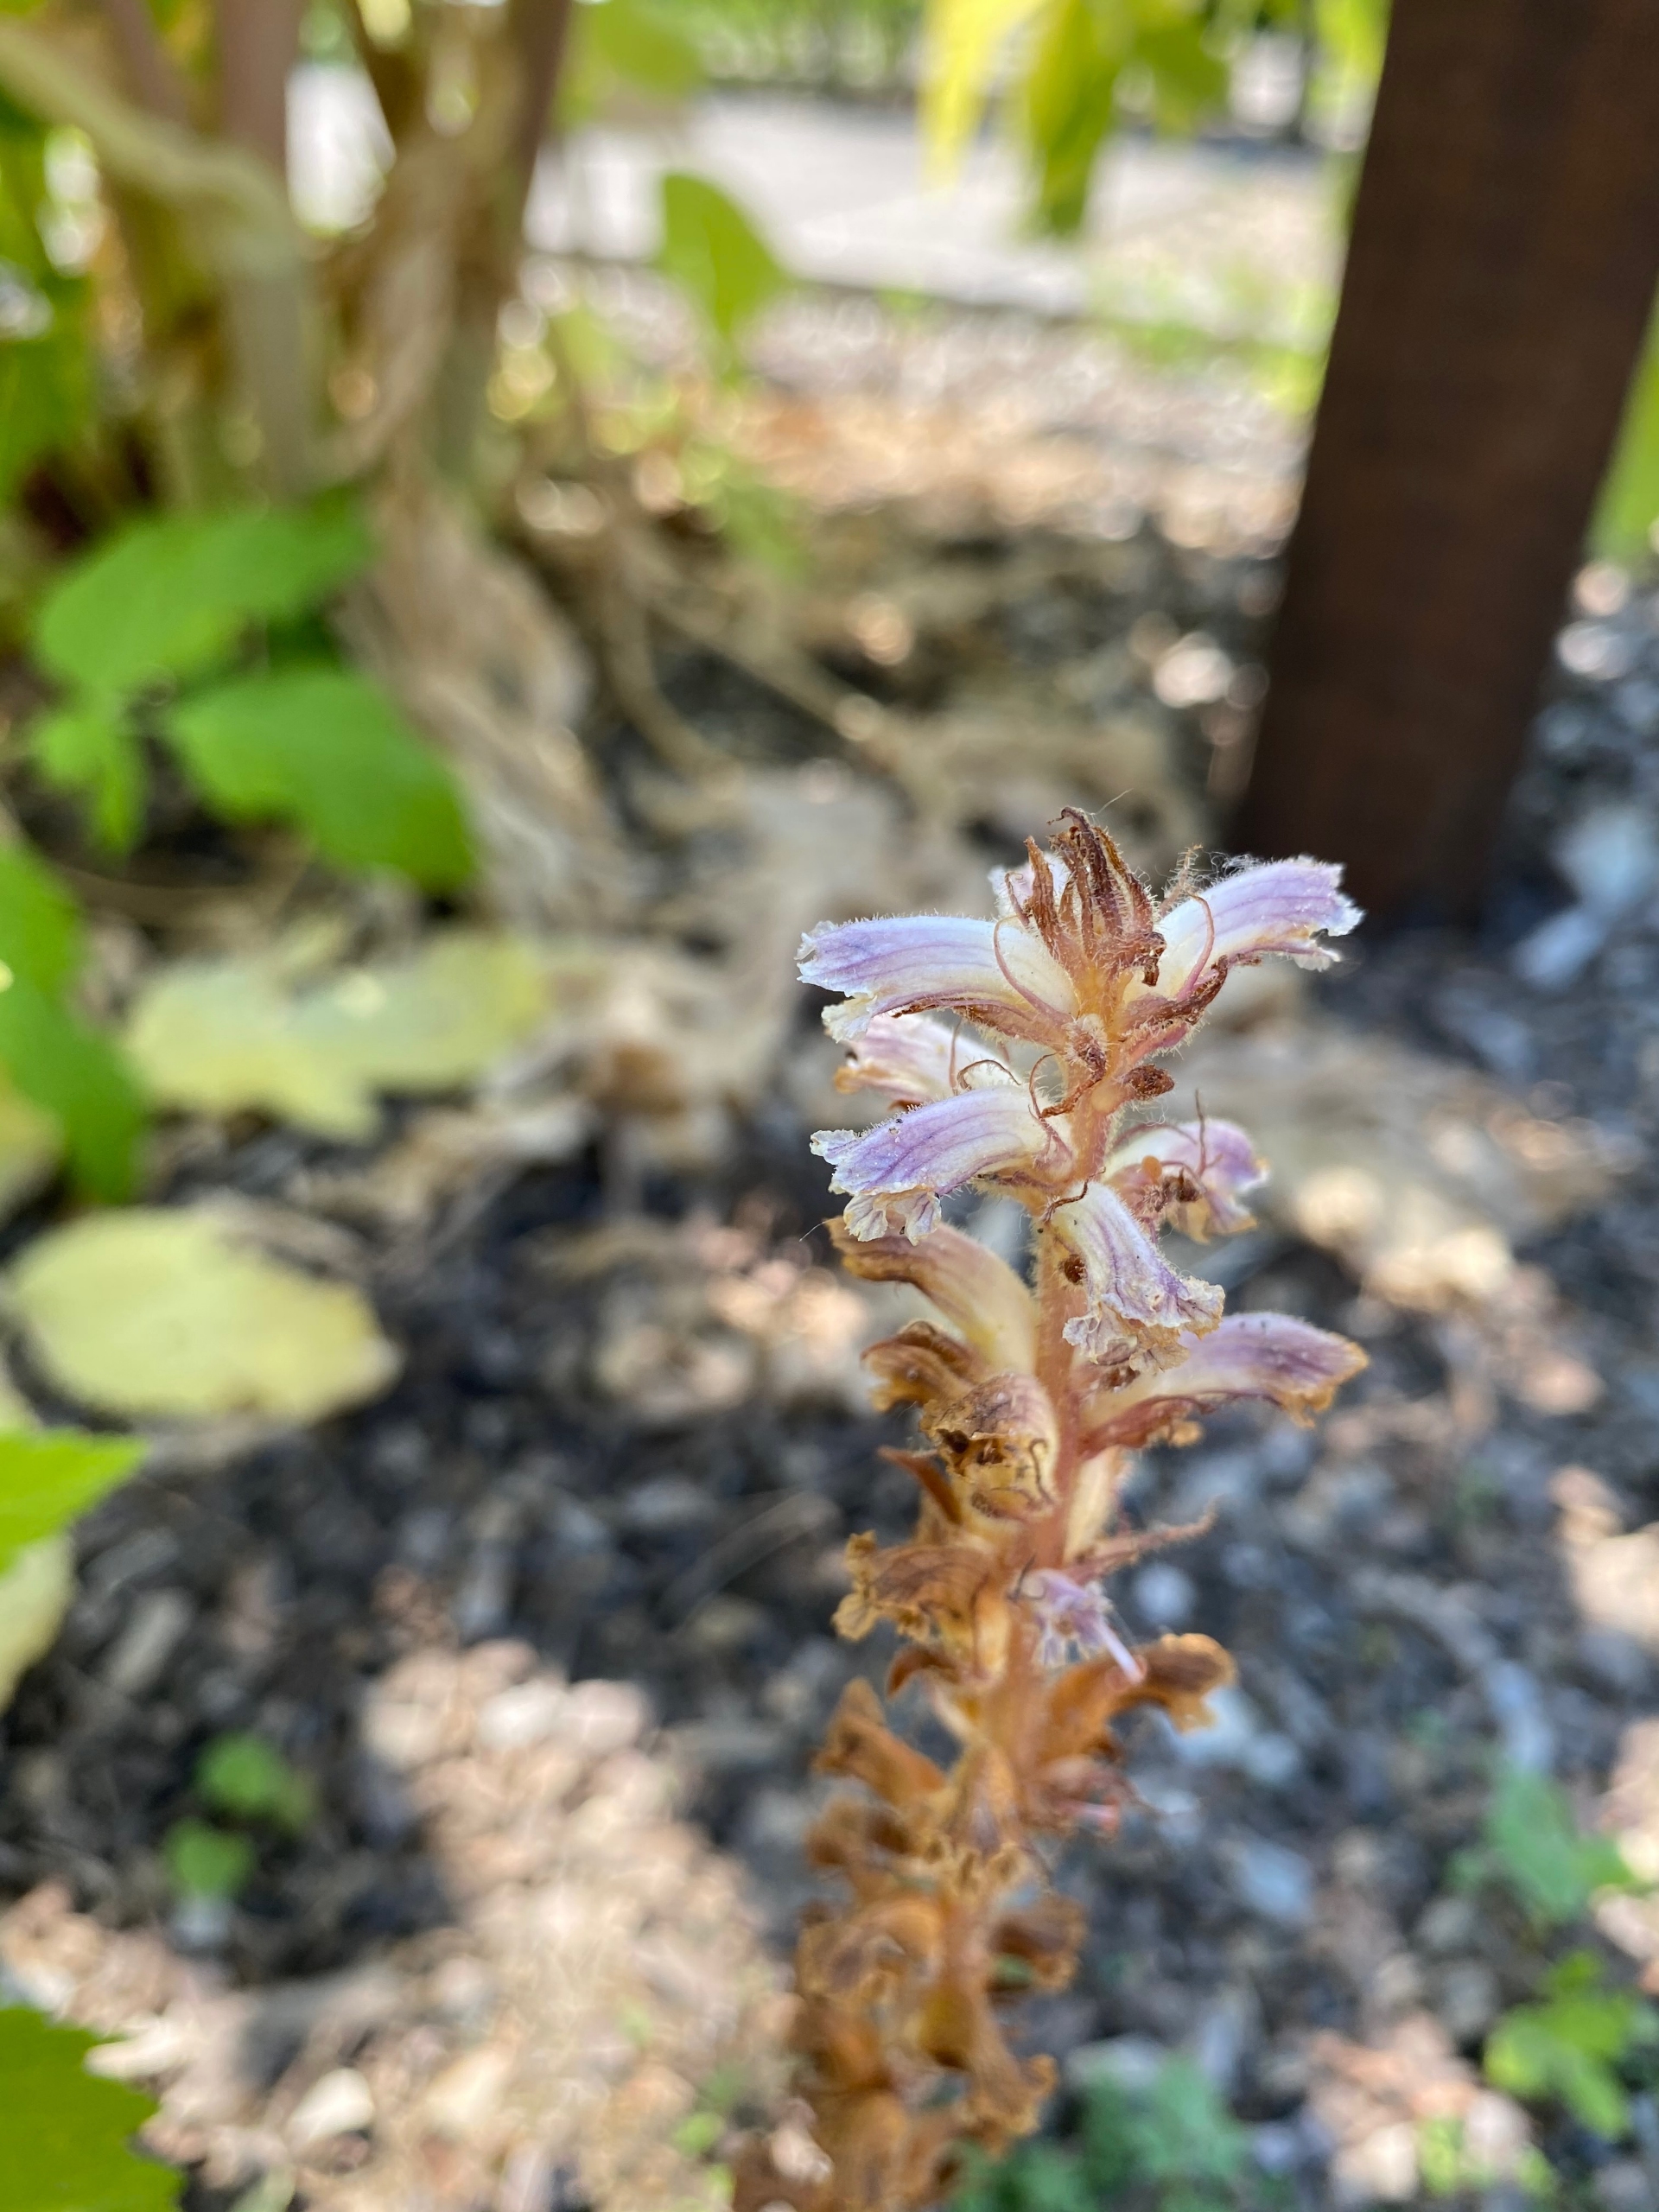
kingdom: Plantae
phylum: Tracheophyta
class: Magnoliopsida
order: Lamiales
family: Orobanchaceae
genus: Orobanche
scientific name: Orobanche minor
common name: Kløver-gyvelkvæler
